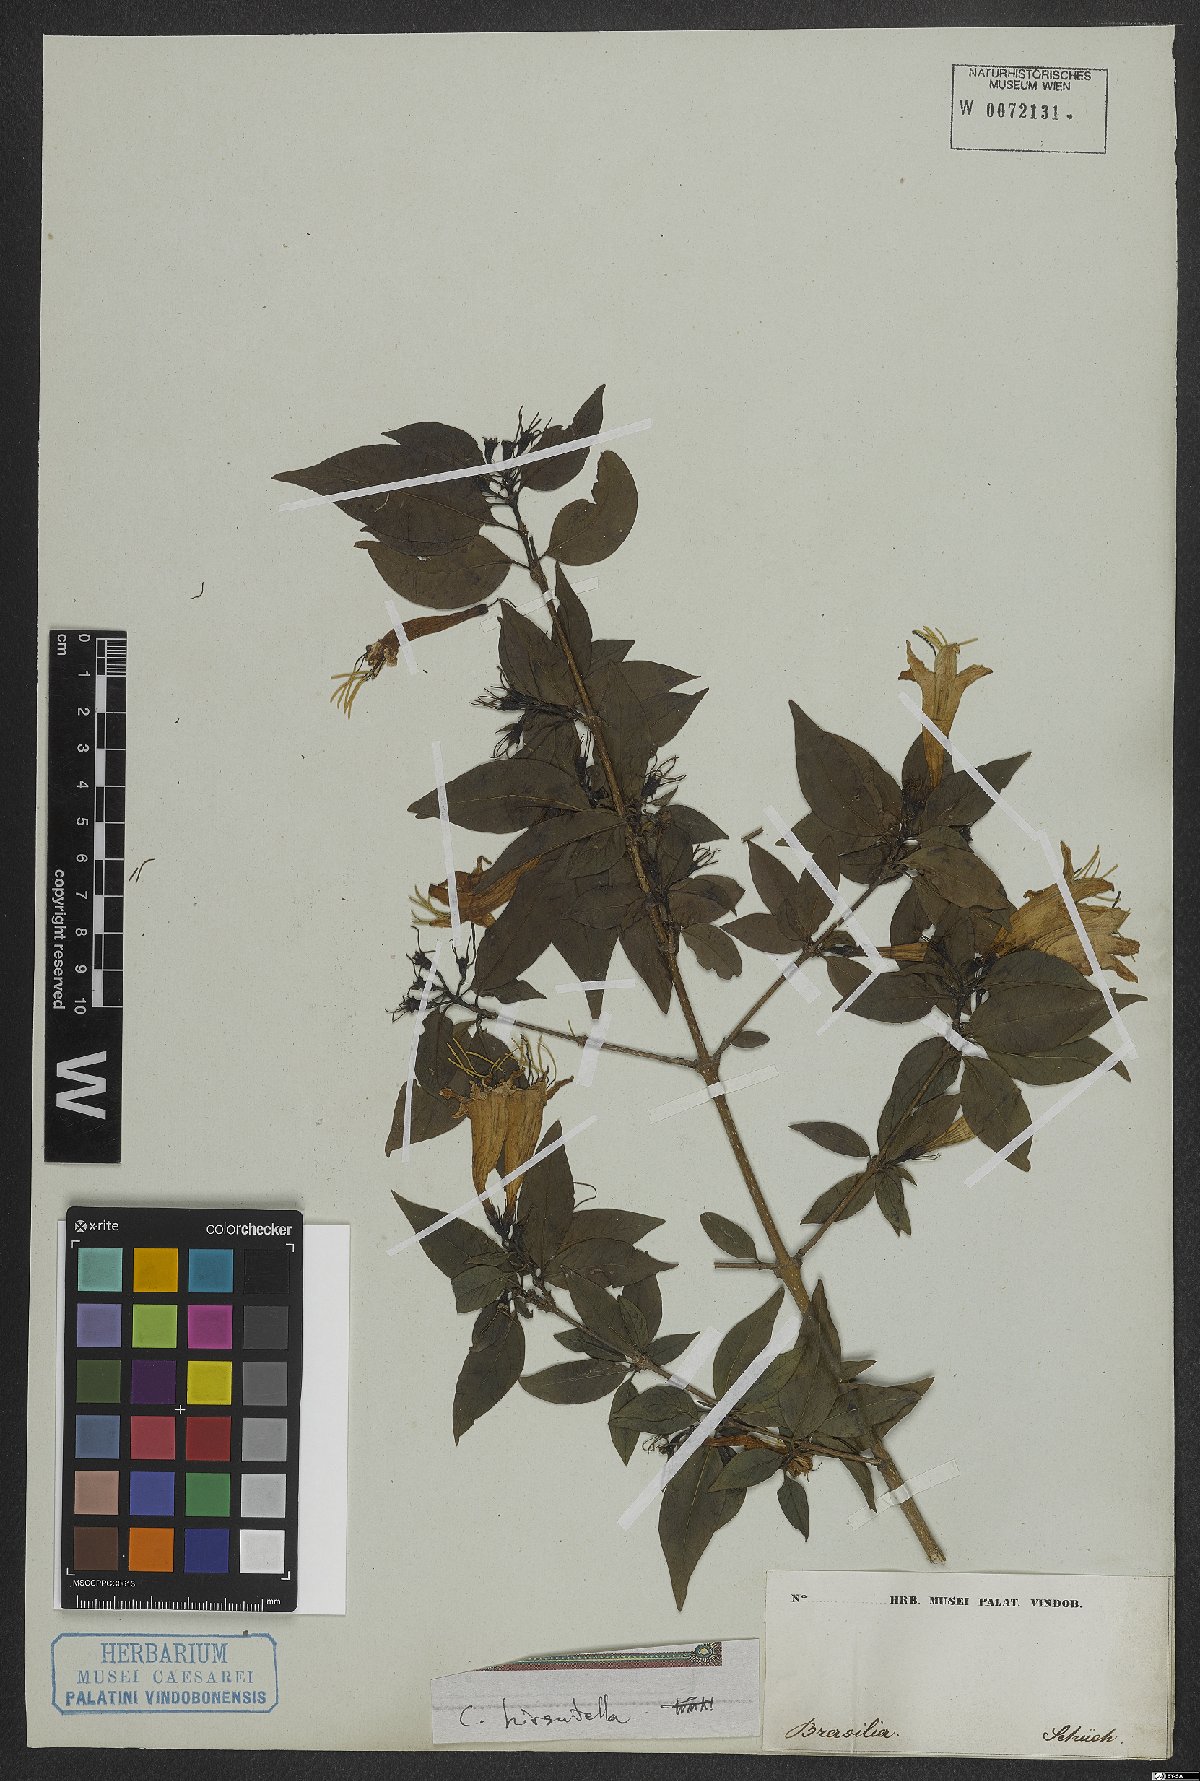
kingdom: Plantae
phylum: Tracheophyta
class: Magnoliopsida
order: Gentianales
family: Rubiaceae
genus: Coutarea
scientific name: Coutarea
